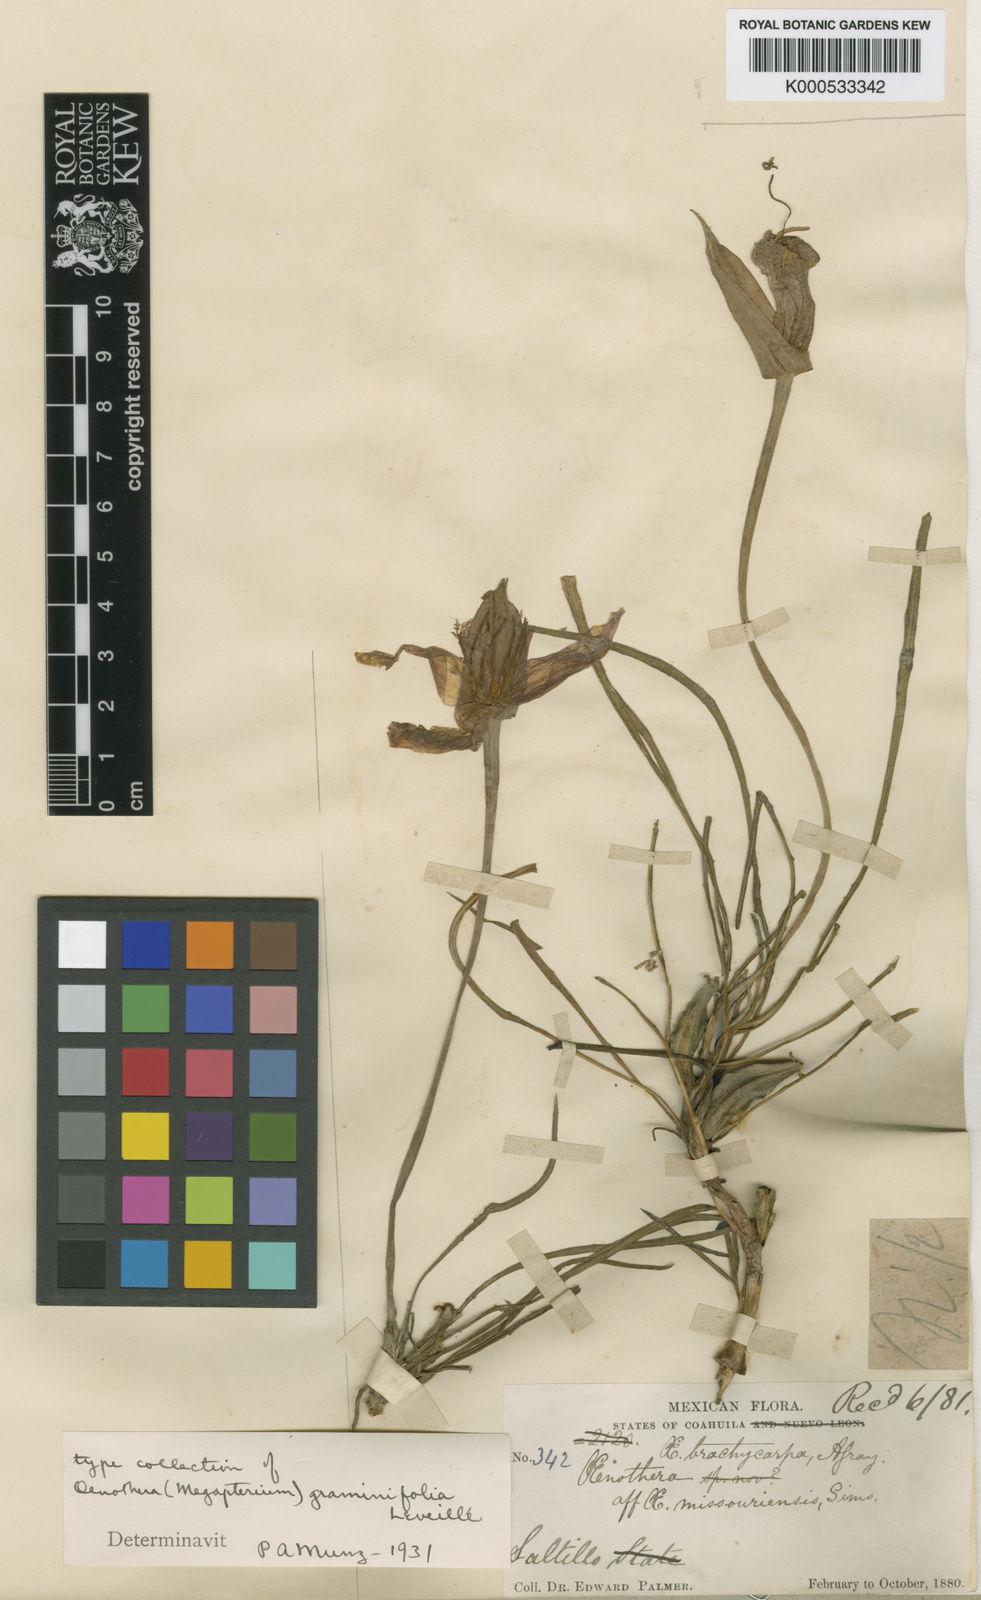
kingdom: Plantae
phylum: Tracheophyta
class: Magnoliopsida
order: Myrtales
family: Onagraceae
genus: Oenothera
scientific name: Oenothera
